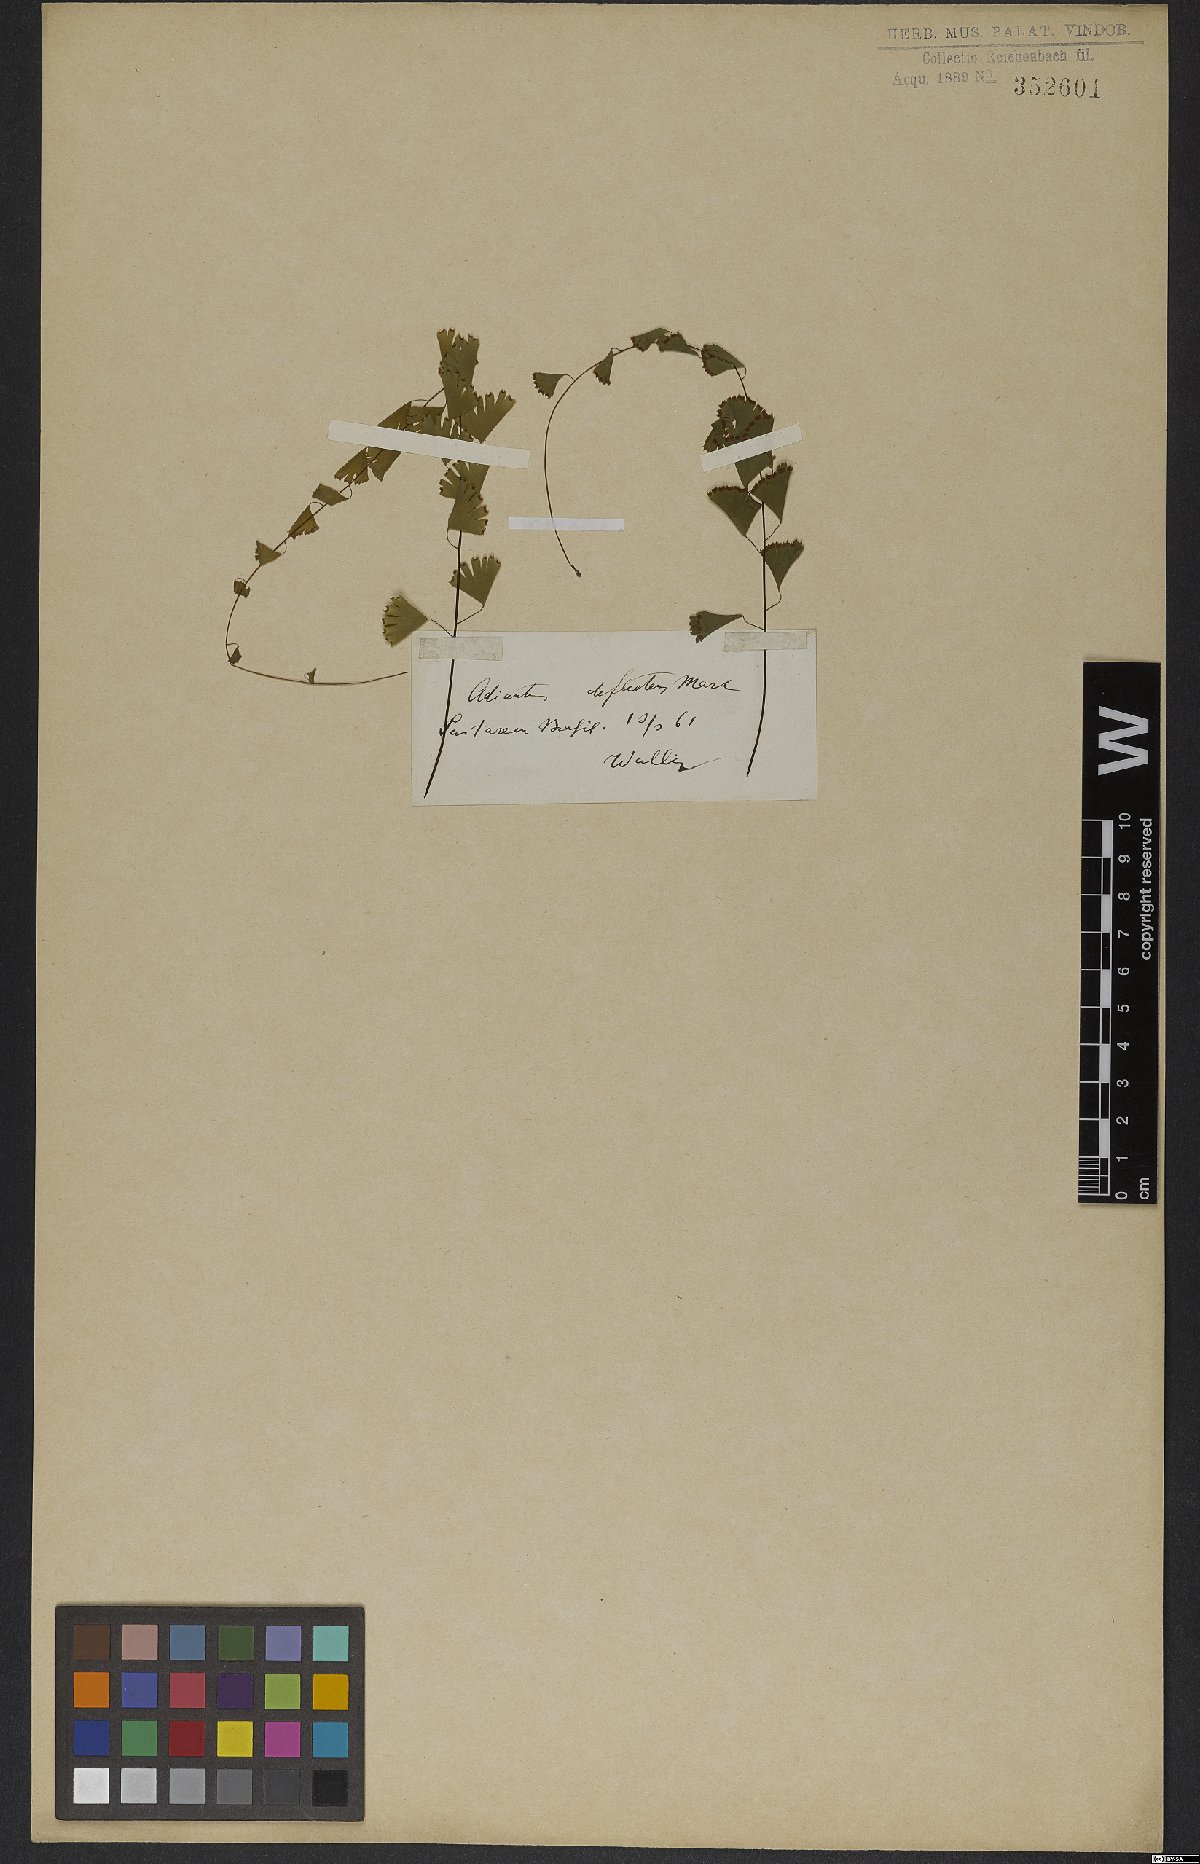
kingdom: Plantae
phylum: Tracheophyta
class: Polypodiopsida
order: Polypodiales
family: Pteridaceae
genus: Adiantum
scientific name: Adiantum deflectens
